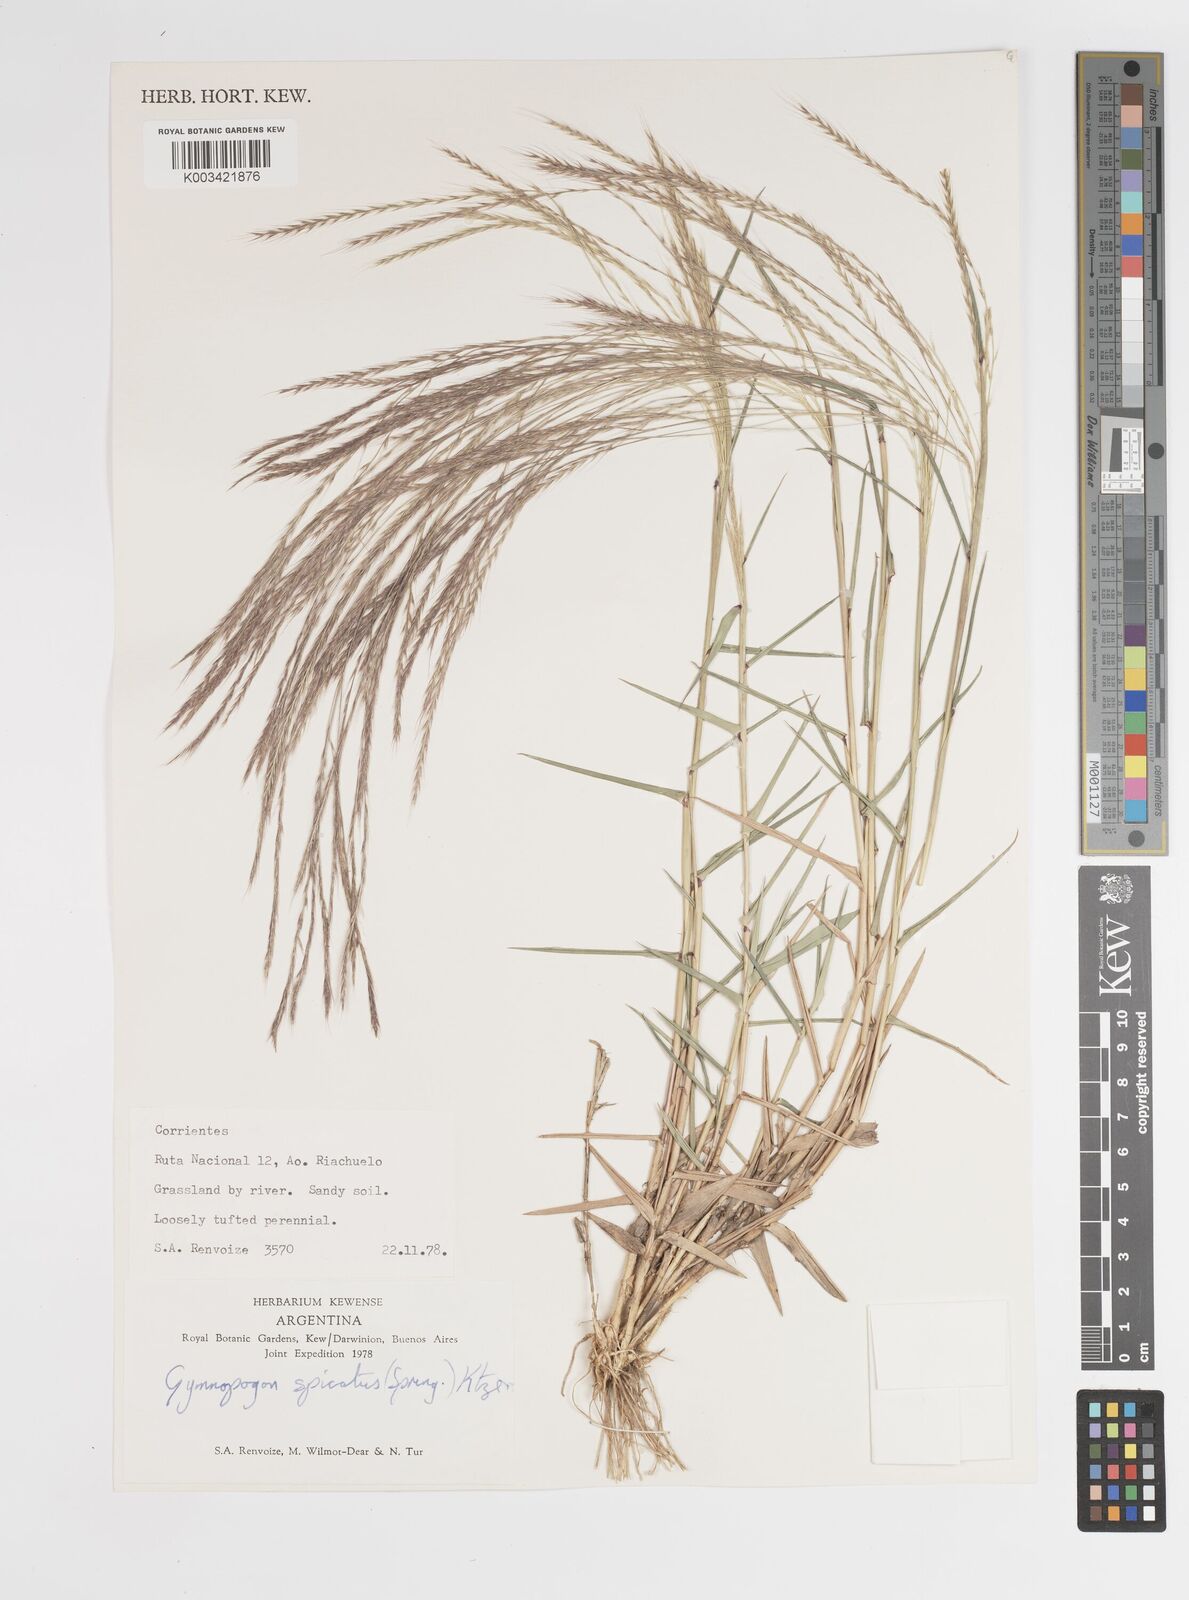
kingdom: Plantae
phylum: Tracheophyta
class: Liliopsida
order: Poales
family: Poaceae
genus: Gymnopogon
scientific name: Gymnopogon spicatus
